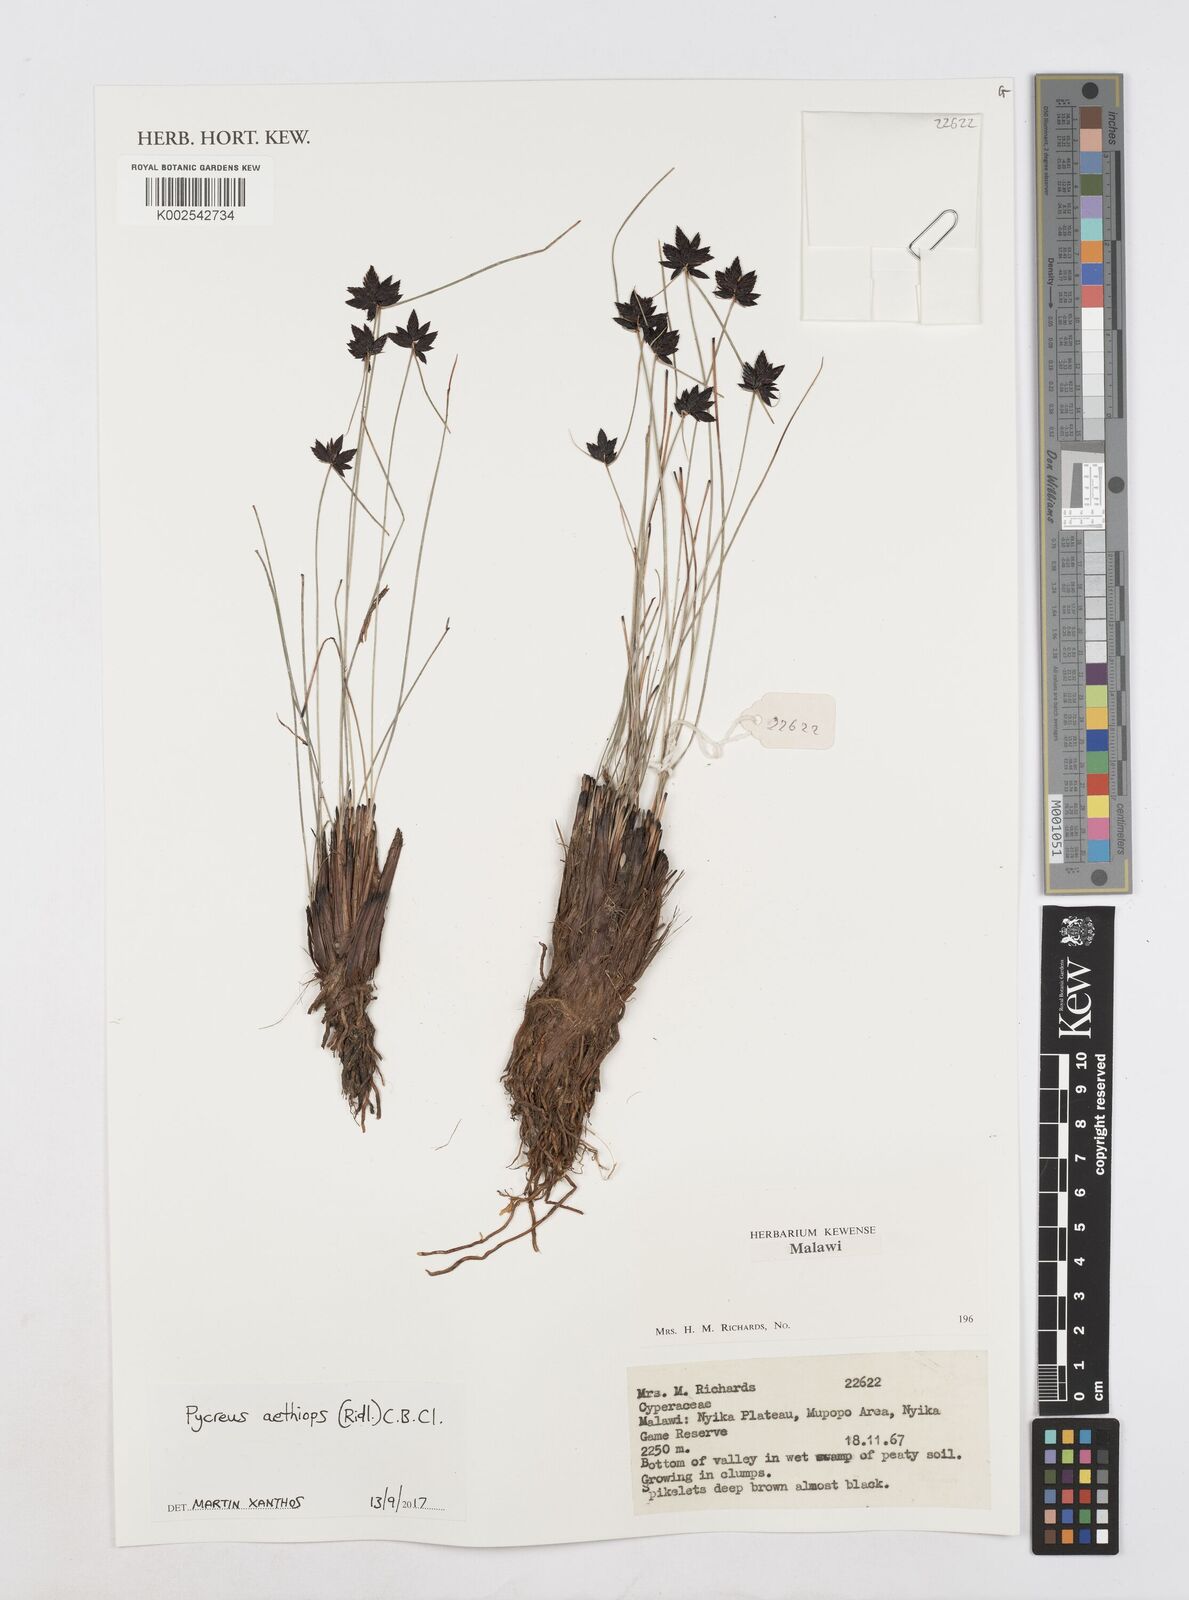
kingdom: Plantae
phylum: Tracheophyta
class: Liliopsida
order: Poales
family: Cyperaceae
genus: Cyperus
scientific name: Cyperus aethiops
